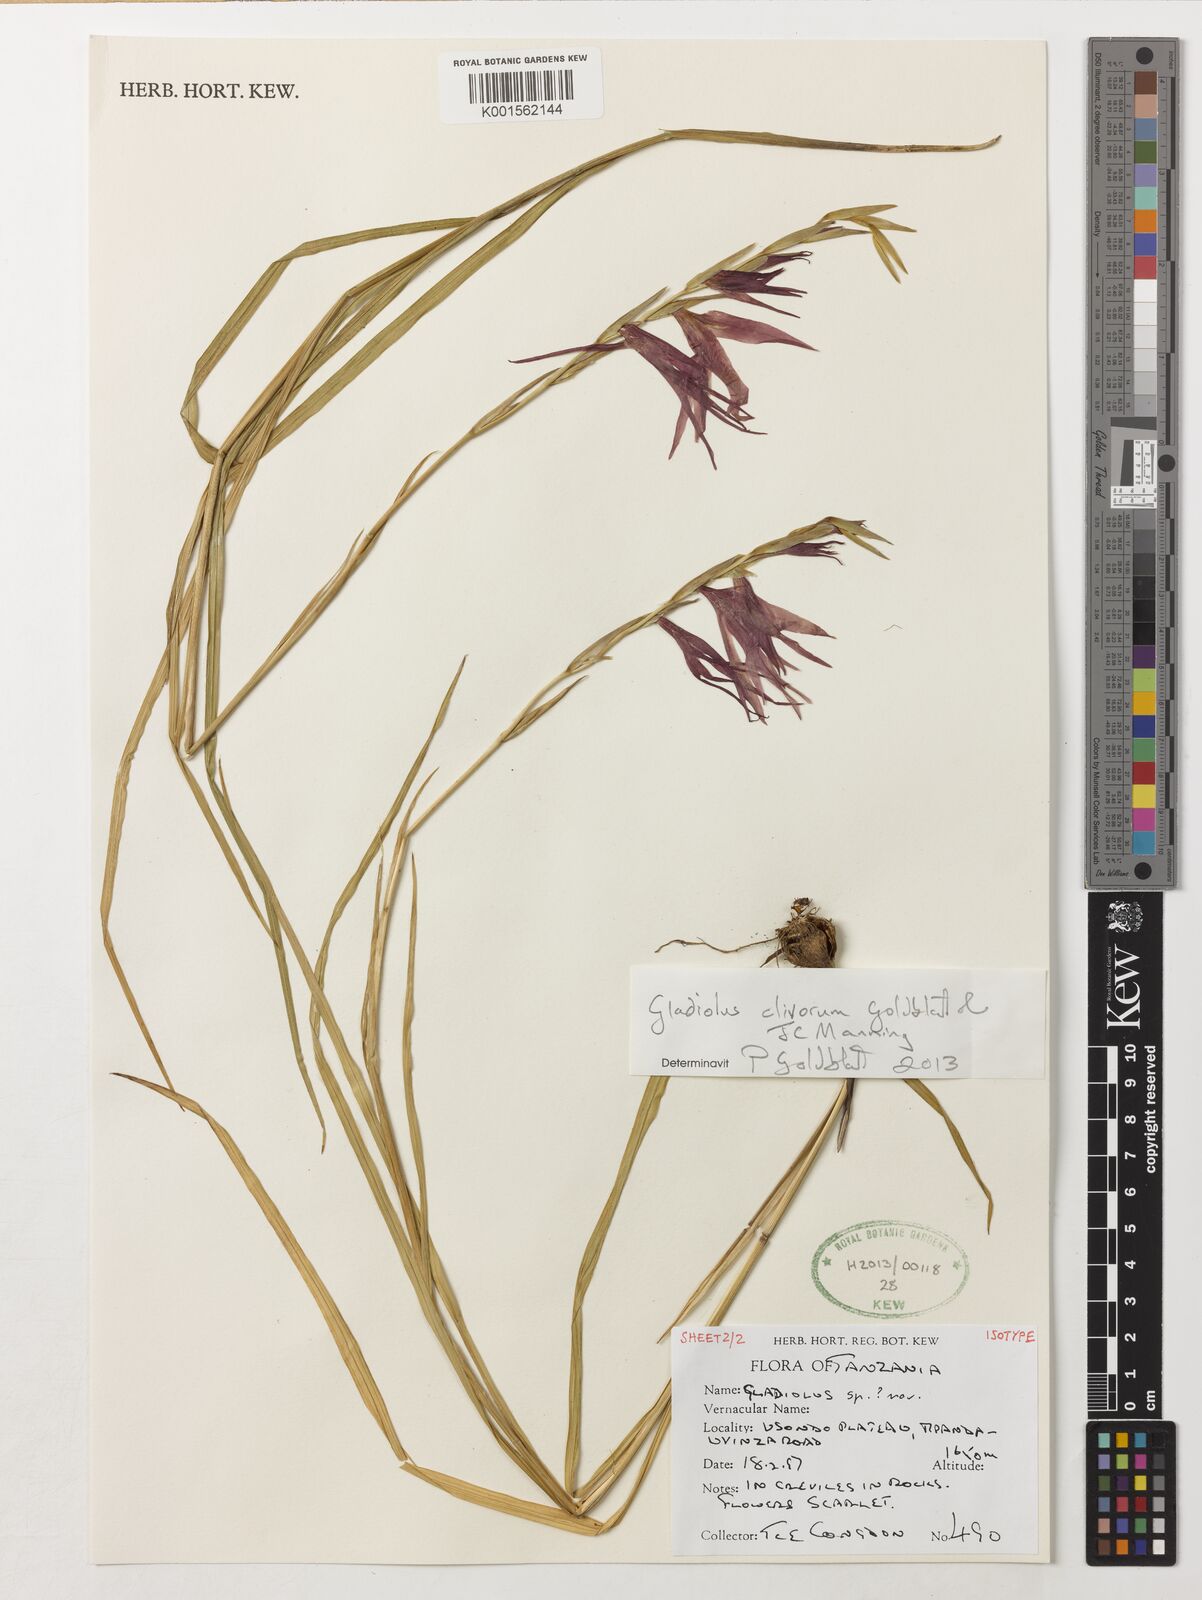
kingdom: Plantae
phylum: Tracheophyta
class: Liliopsida
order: Asparagales
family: Iridaceae
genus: Gladiolus
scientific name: Gladiolus clivorum
